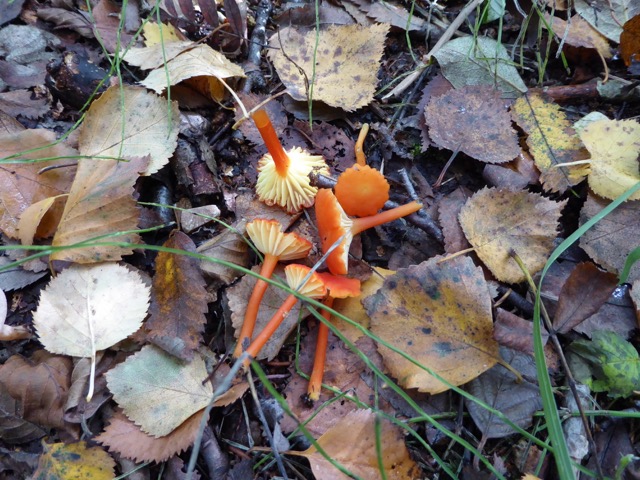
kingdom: Fungi
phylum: Basidiomycota
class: Agaricomycetes
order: Agaricales
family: Mycenaceae
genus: Mycena
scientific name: Mycena haematopus
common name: blødende huesvamp
